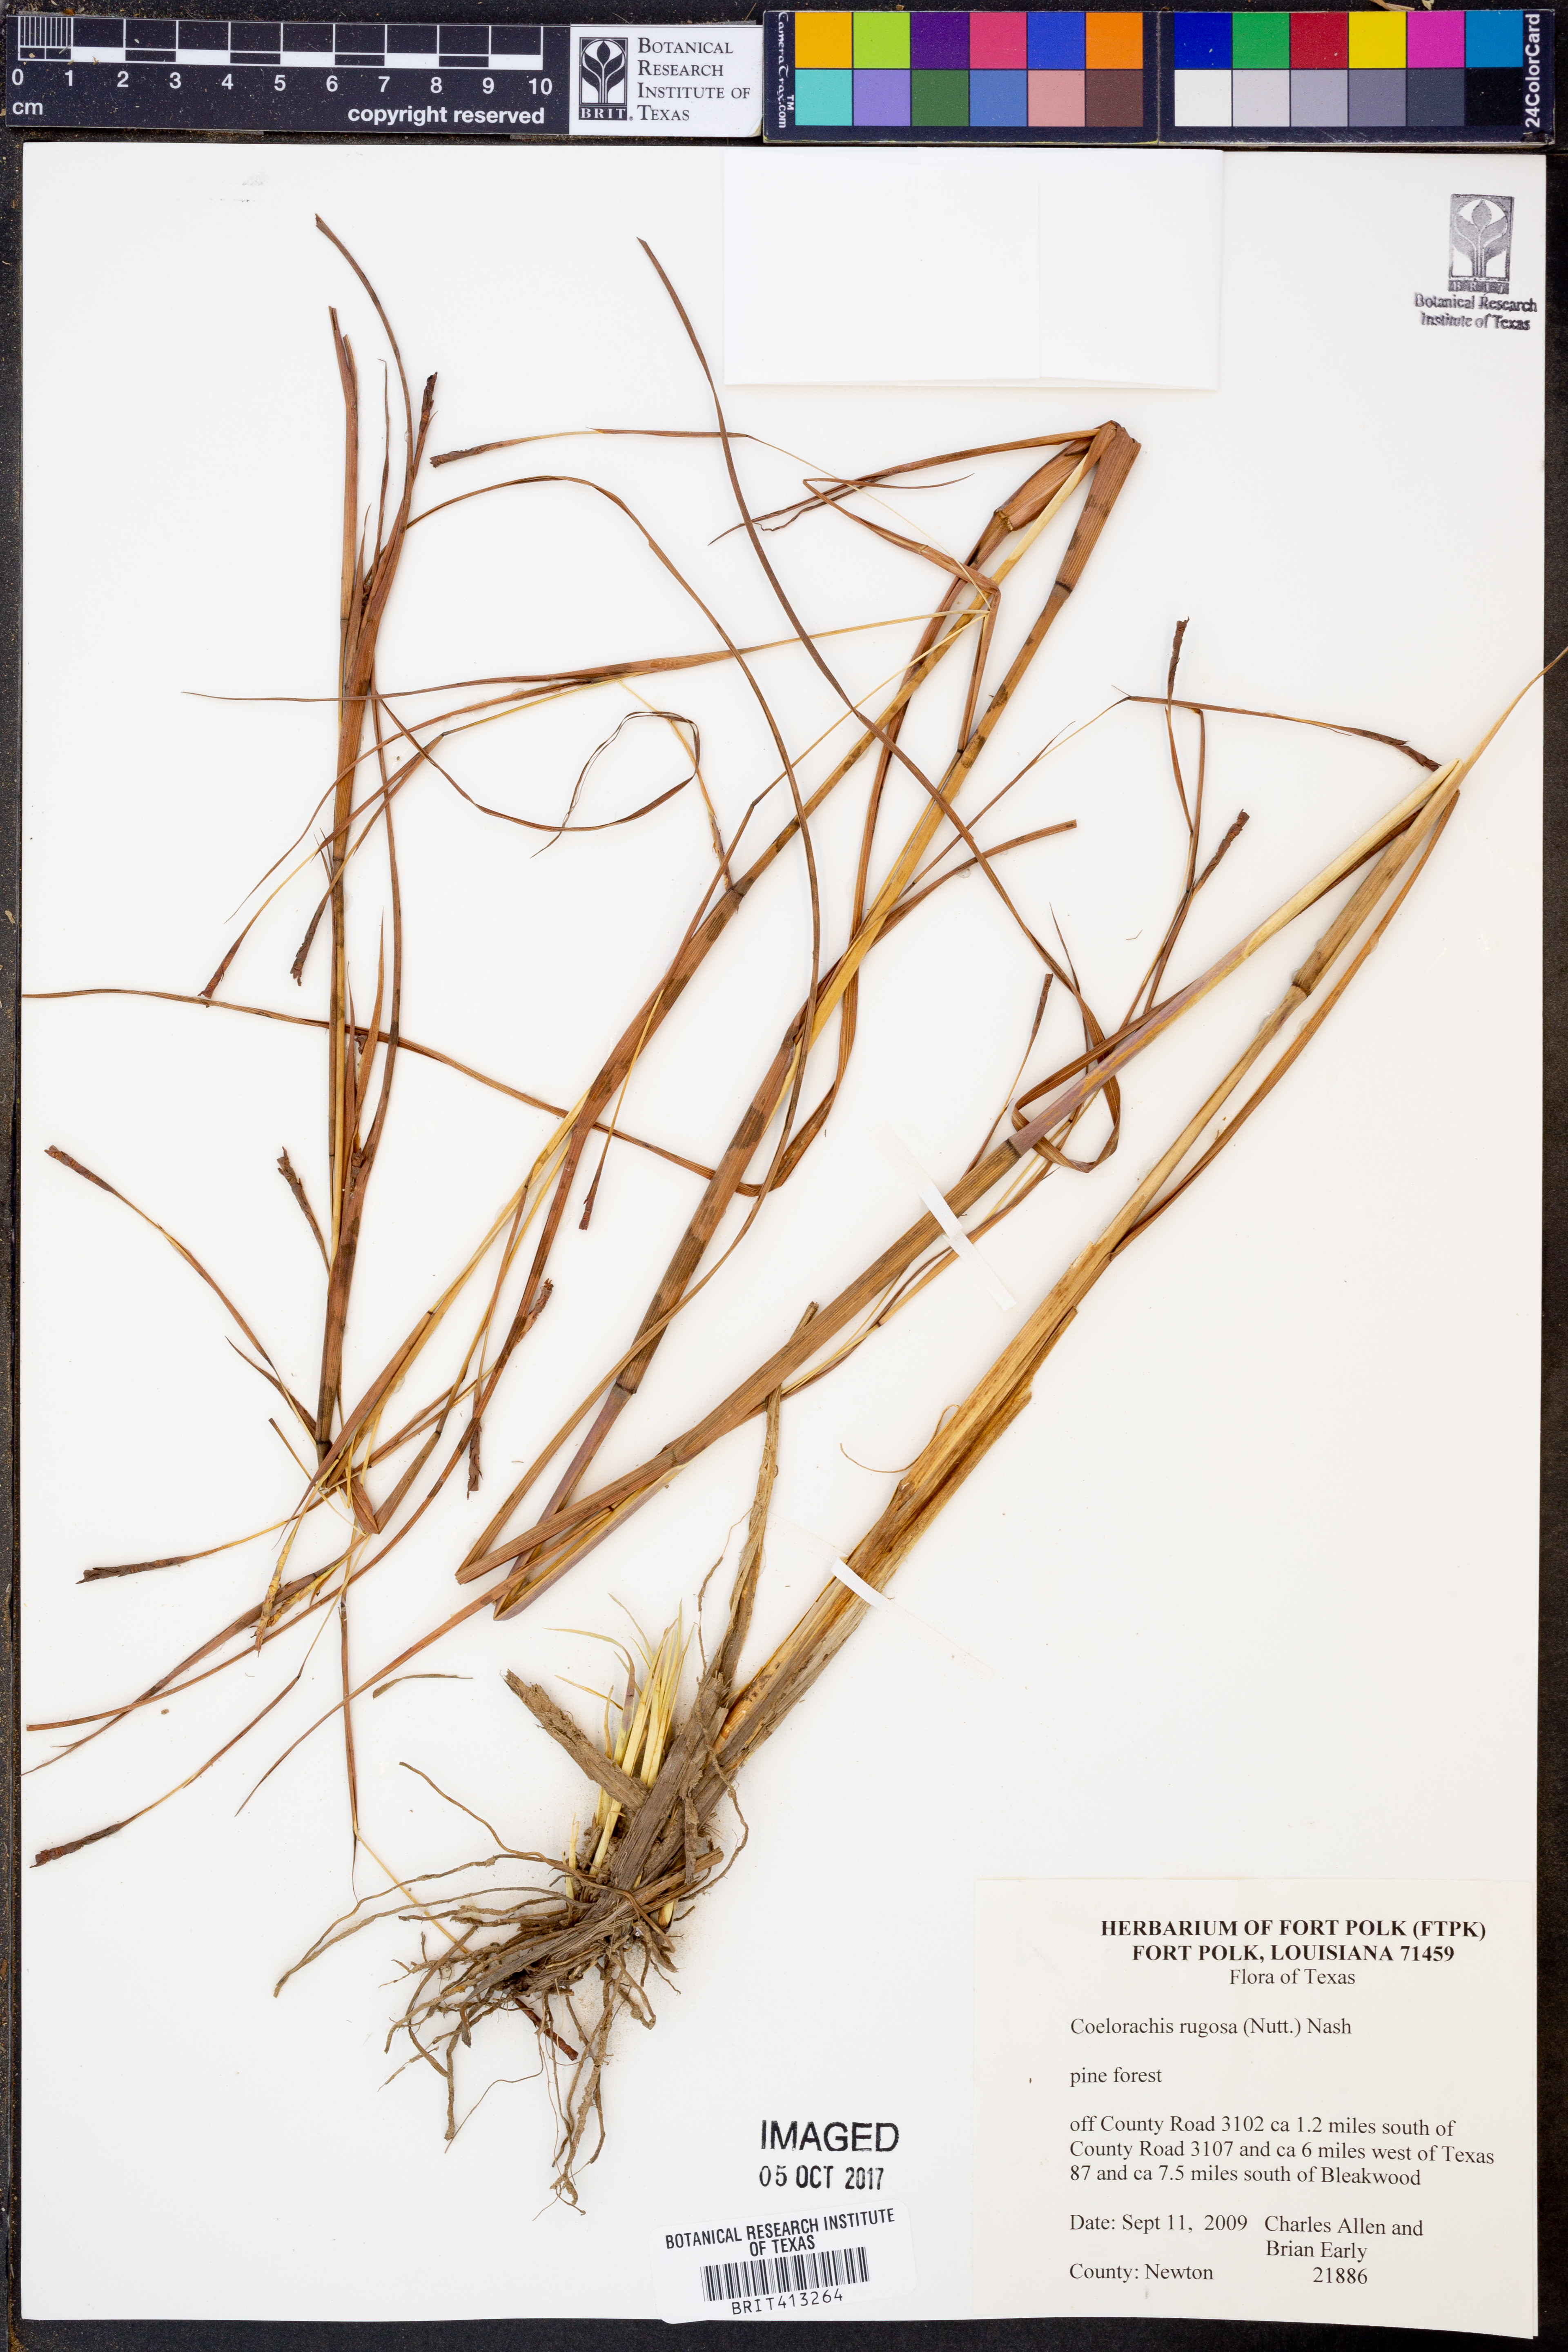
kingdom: Plantae
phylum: Tracheophyta
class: Liliopsida
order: Poales
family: Poaceae
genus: Rottboellia
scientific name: Rottboellia rugosa
